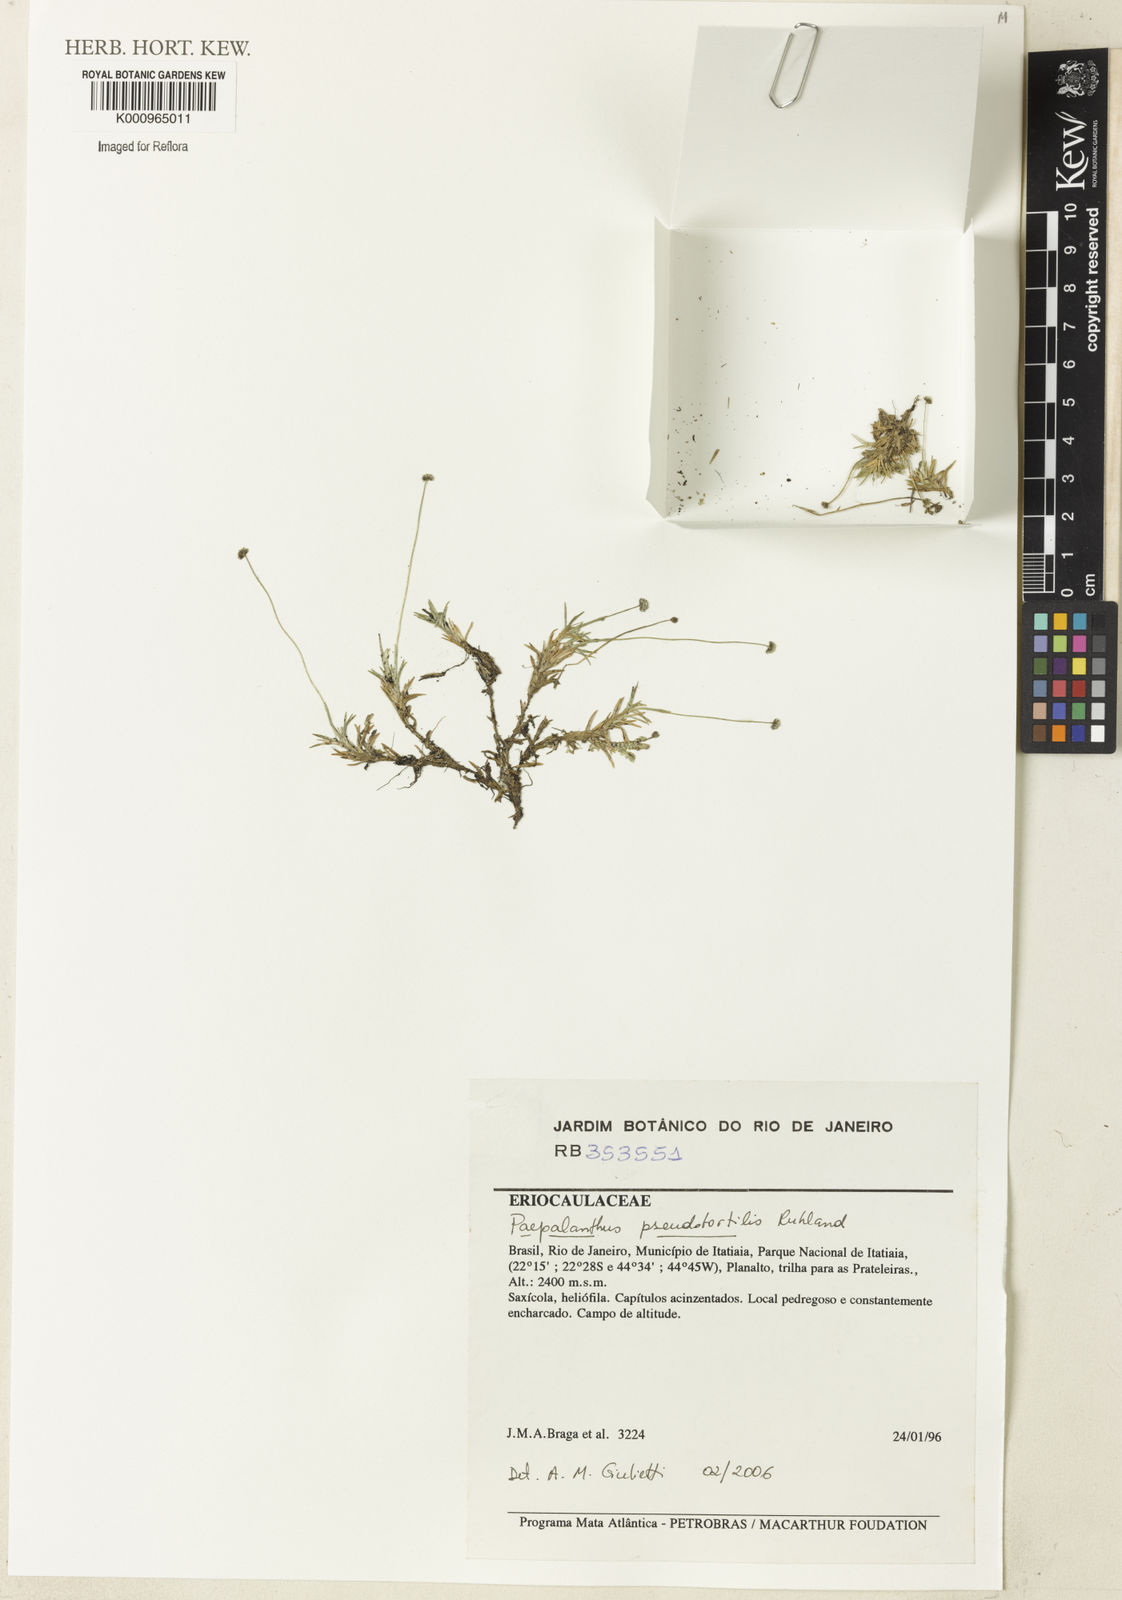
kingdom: Plantae
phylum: Tracheophyta
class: Liliopsida
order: Poales
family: Eriocaulaceae
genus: Paepalanthus
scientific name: Paepalanthus pseudotortilis
